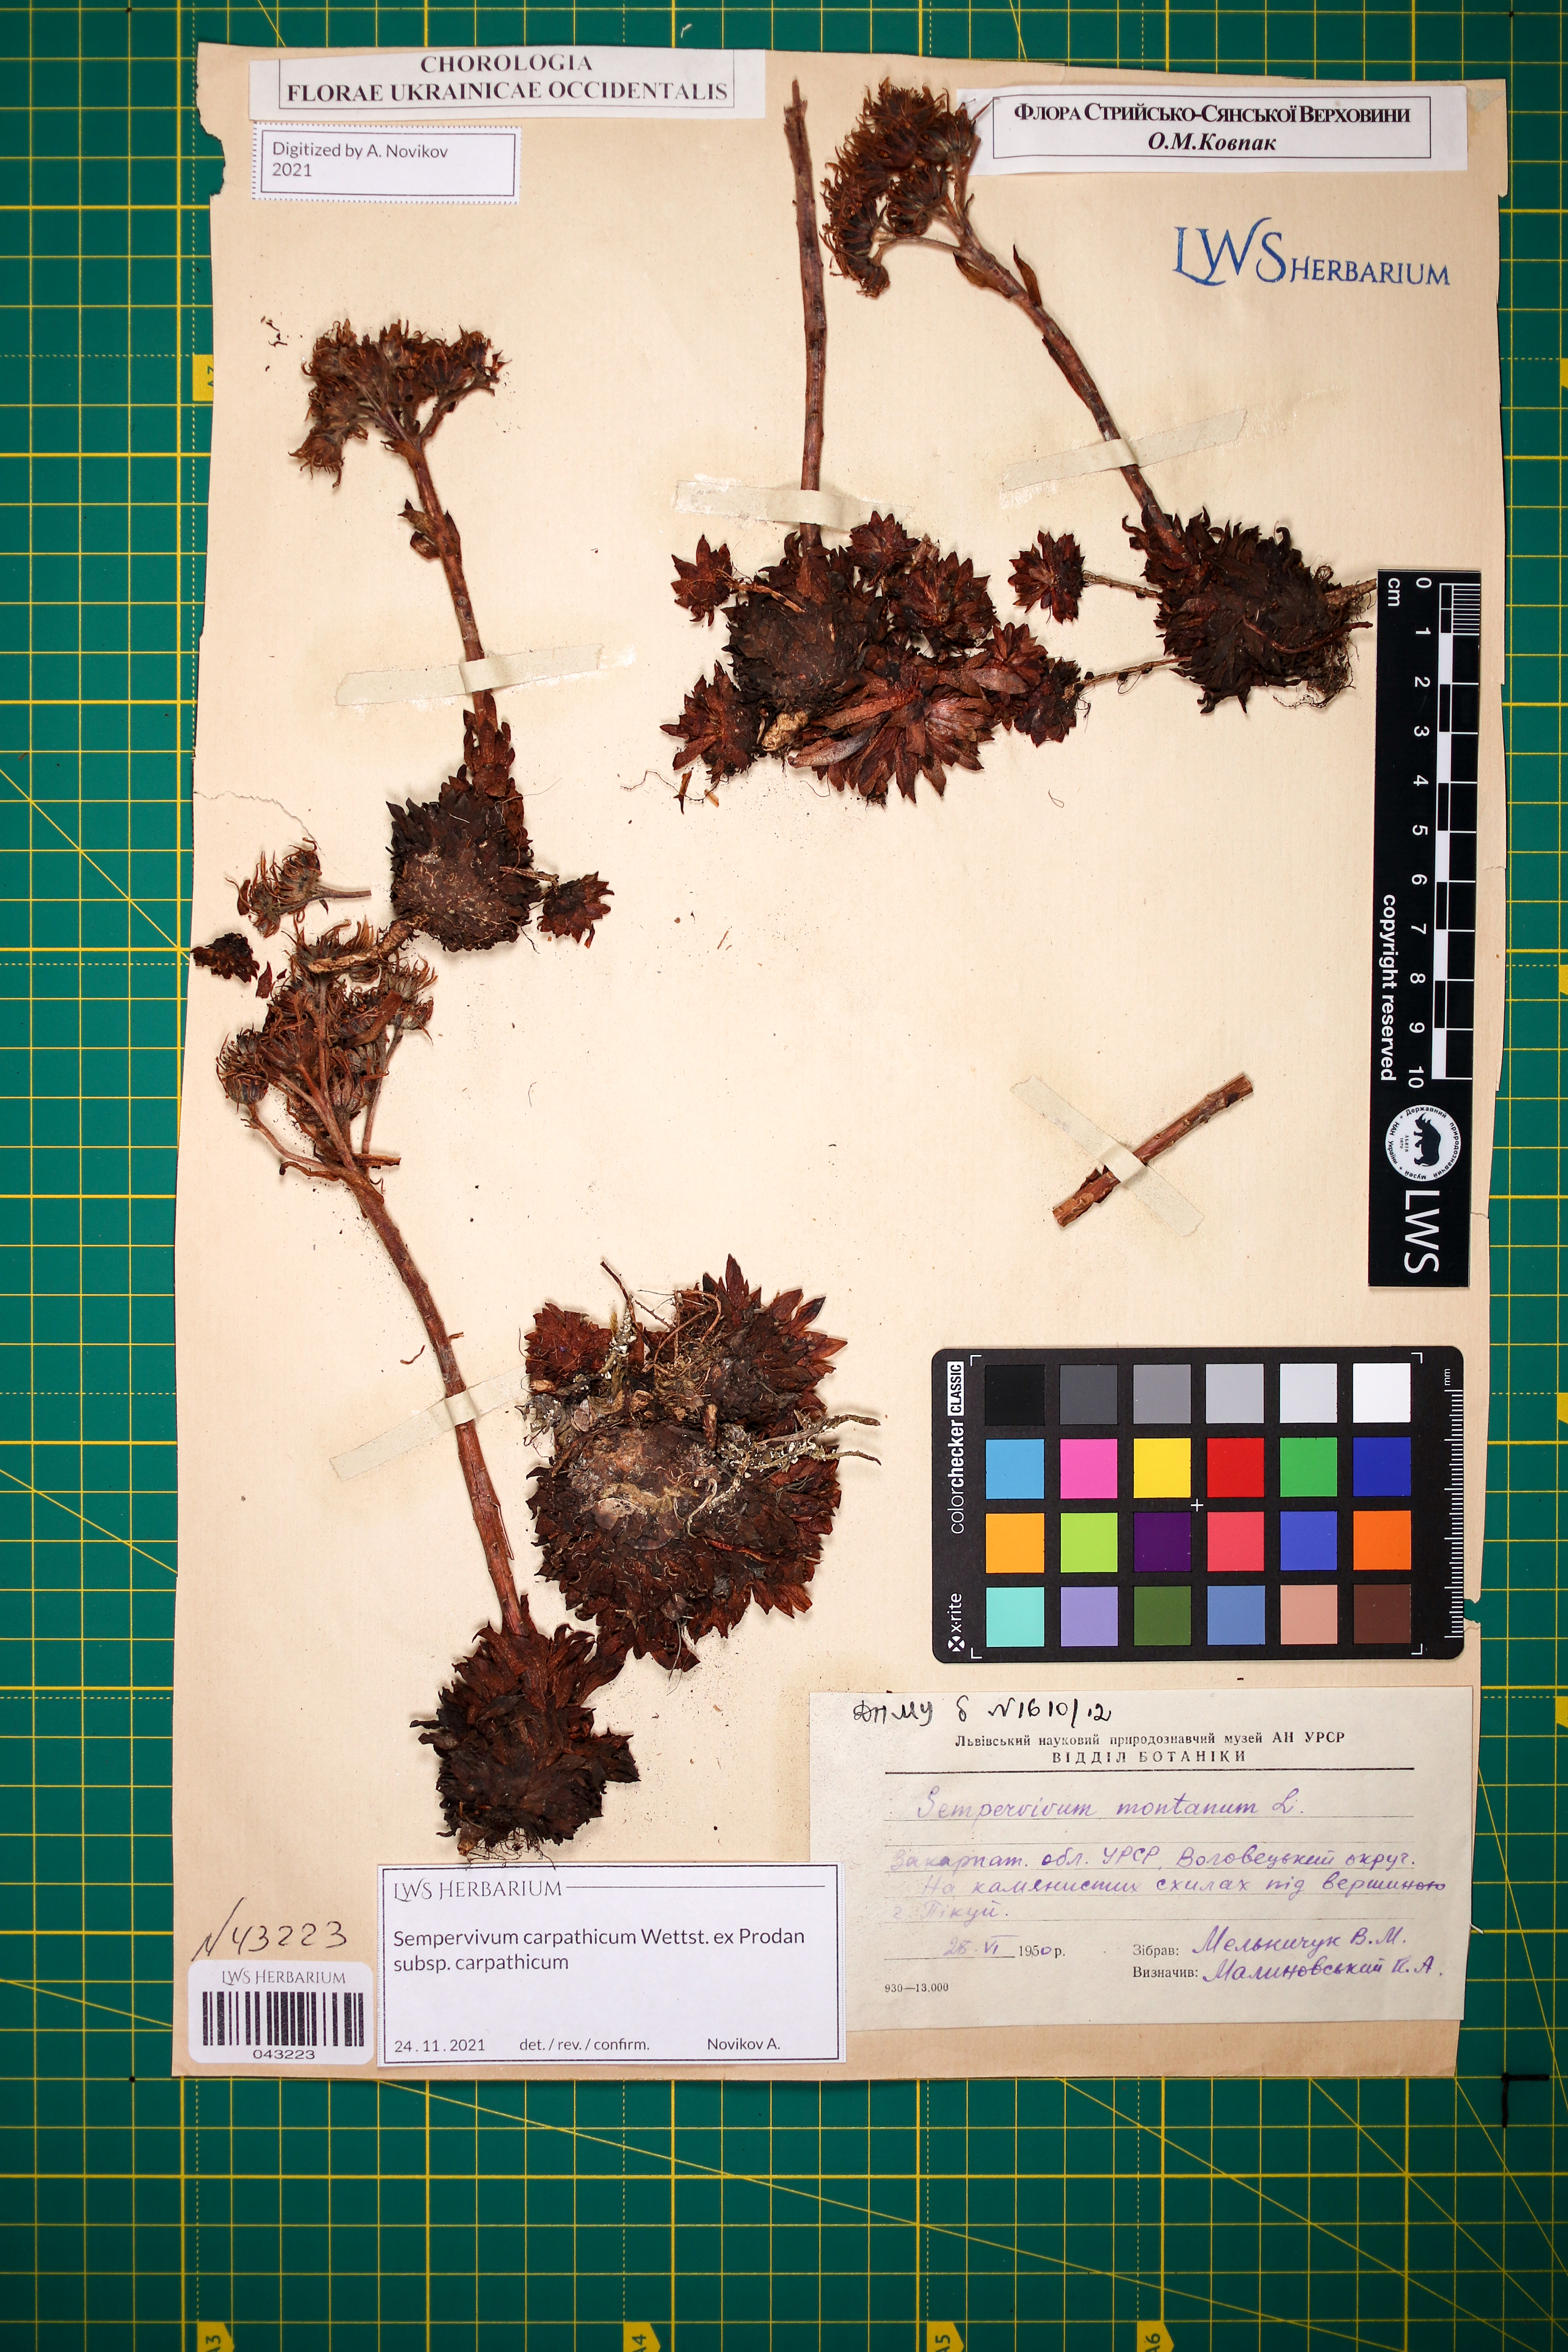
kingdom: Plantae
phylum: Tracheophyta
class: Magnoliopsida
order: Saxifragales
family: Crassulaceae
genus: Sempervivum
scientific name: Sempervivum montanum
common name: Mountain house-leek
